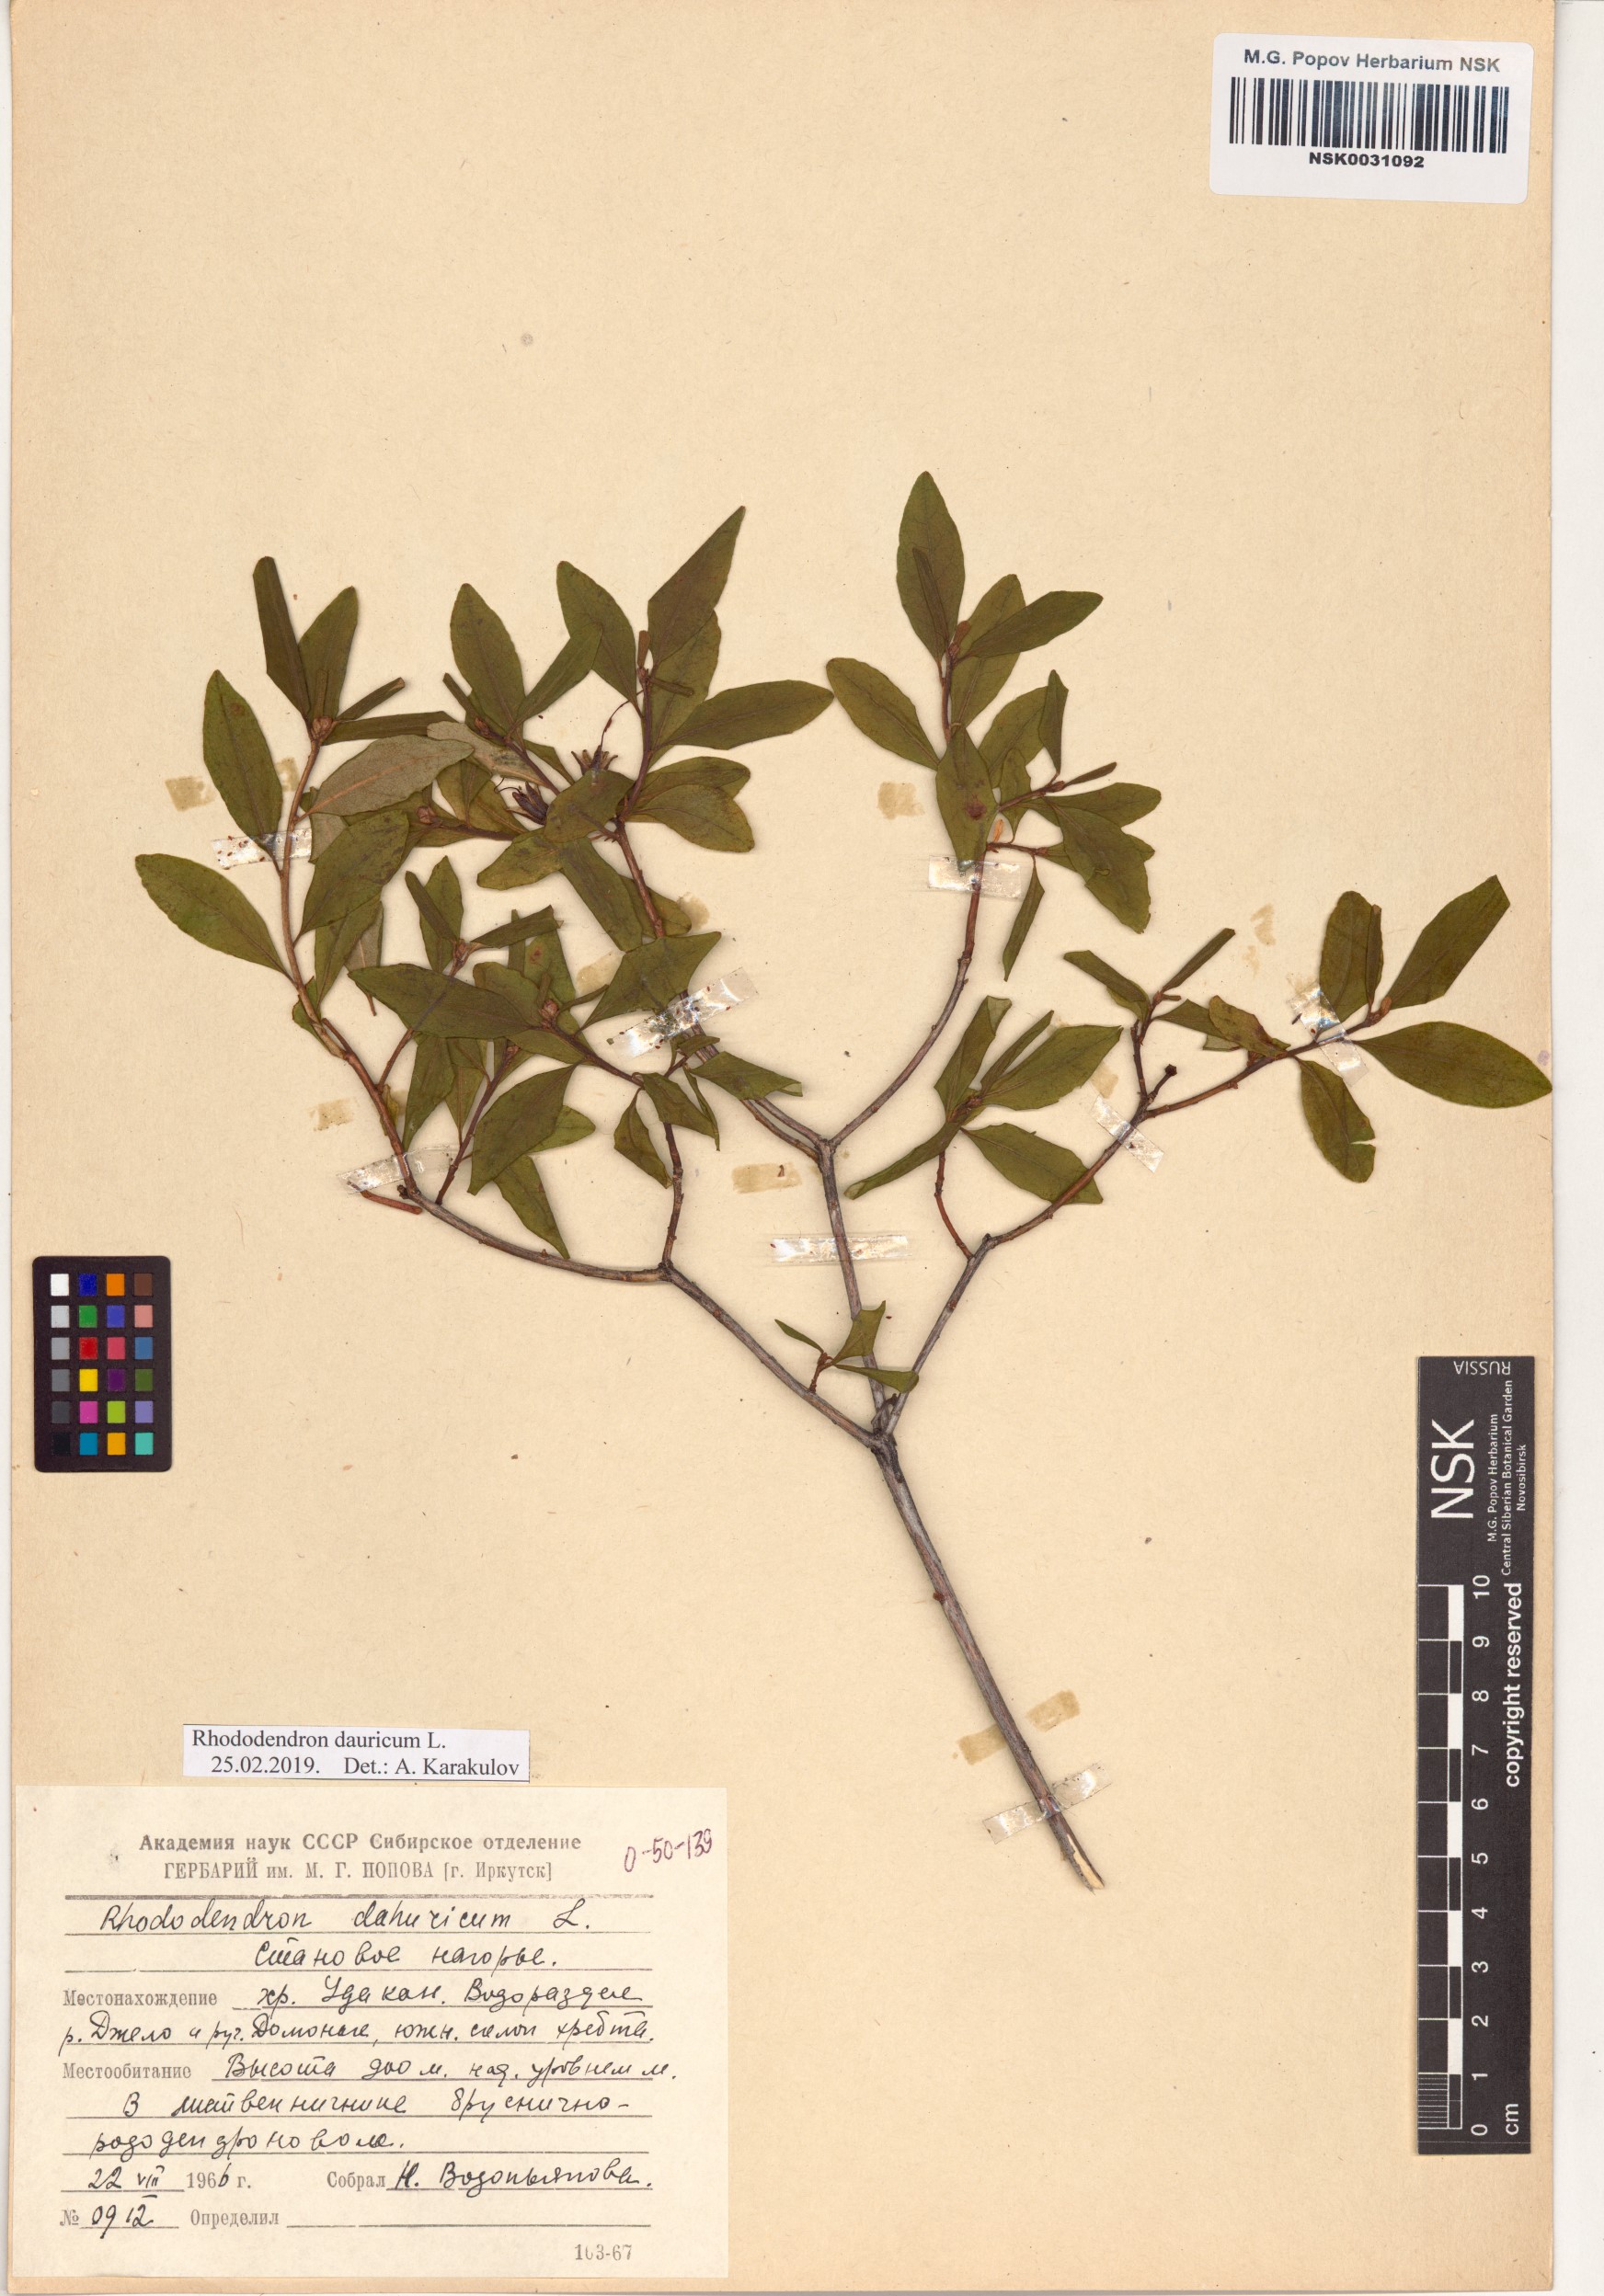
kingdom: Plantae
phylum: Tracheophyta
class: Magnoliopsida
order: Ericales
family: Ericaceae
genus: Rhododendron
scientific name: Rhododendron dauricum
